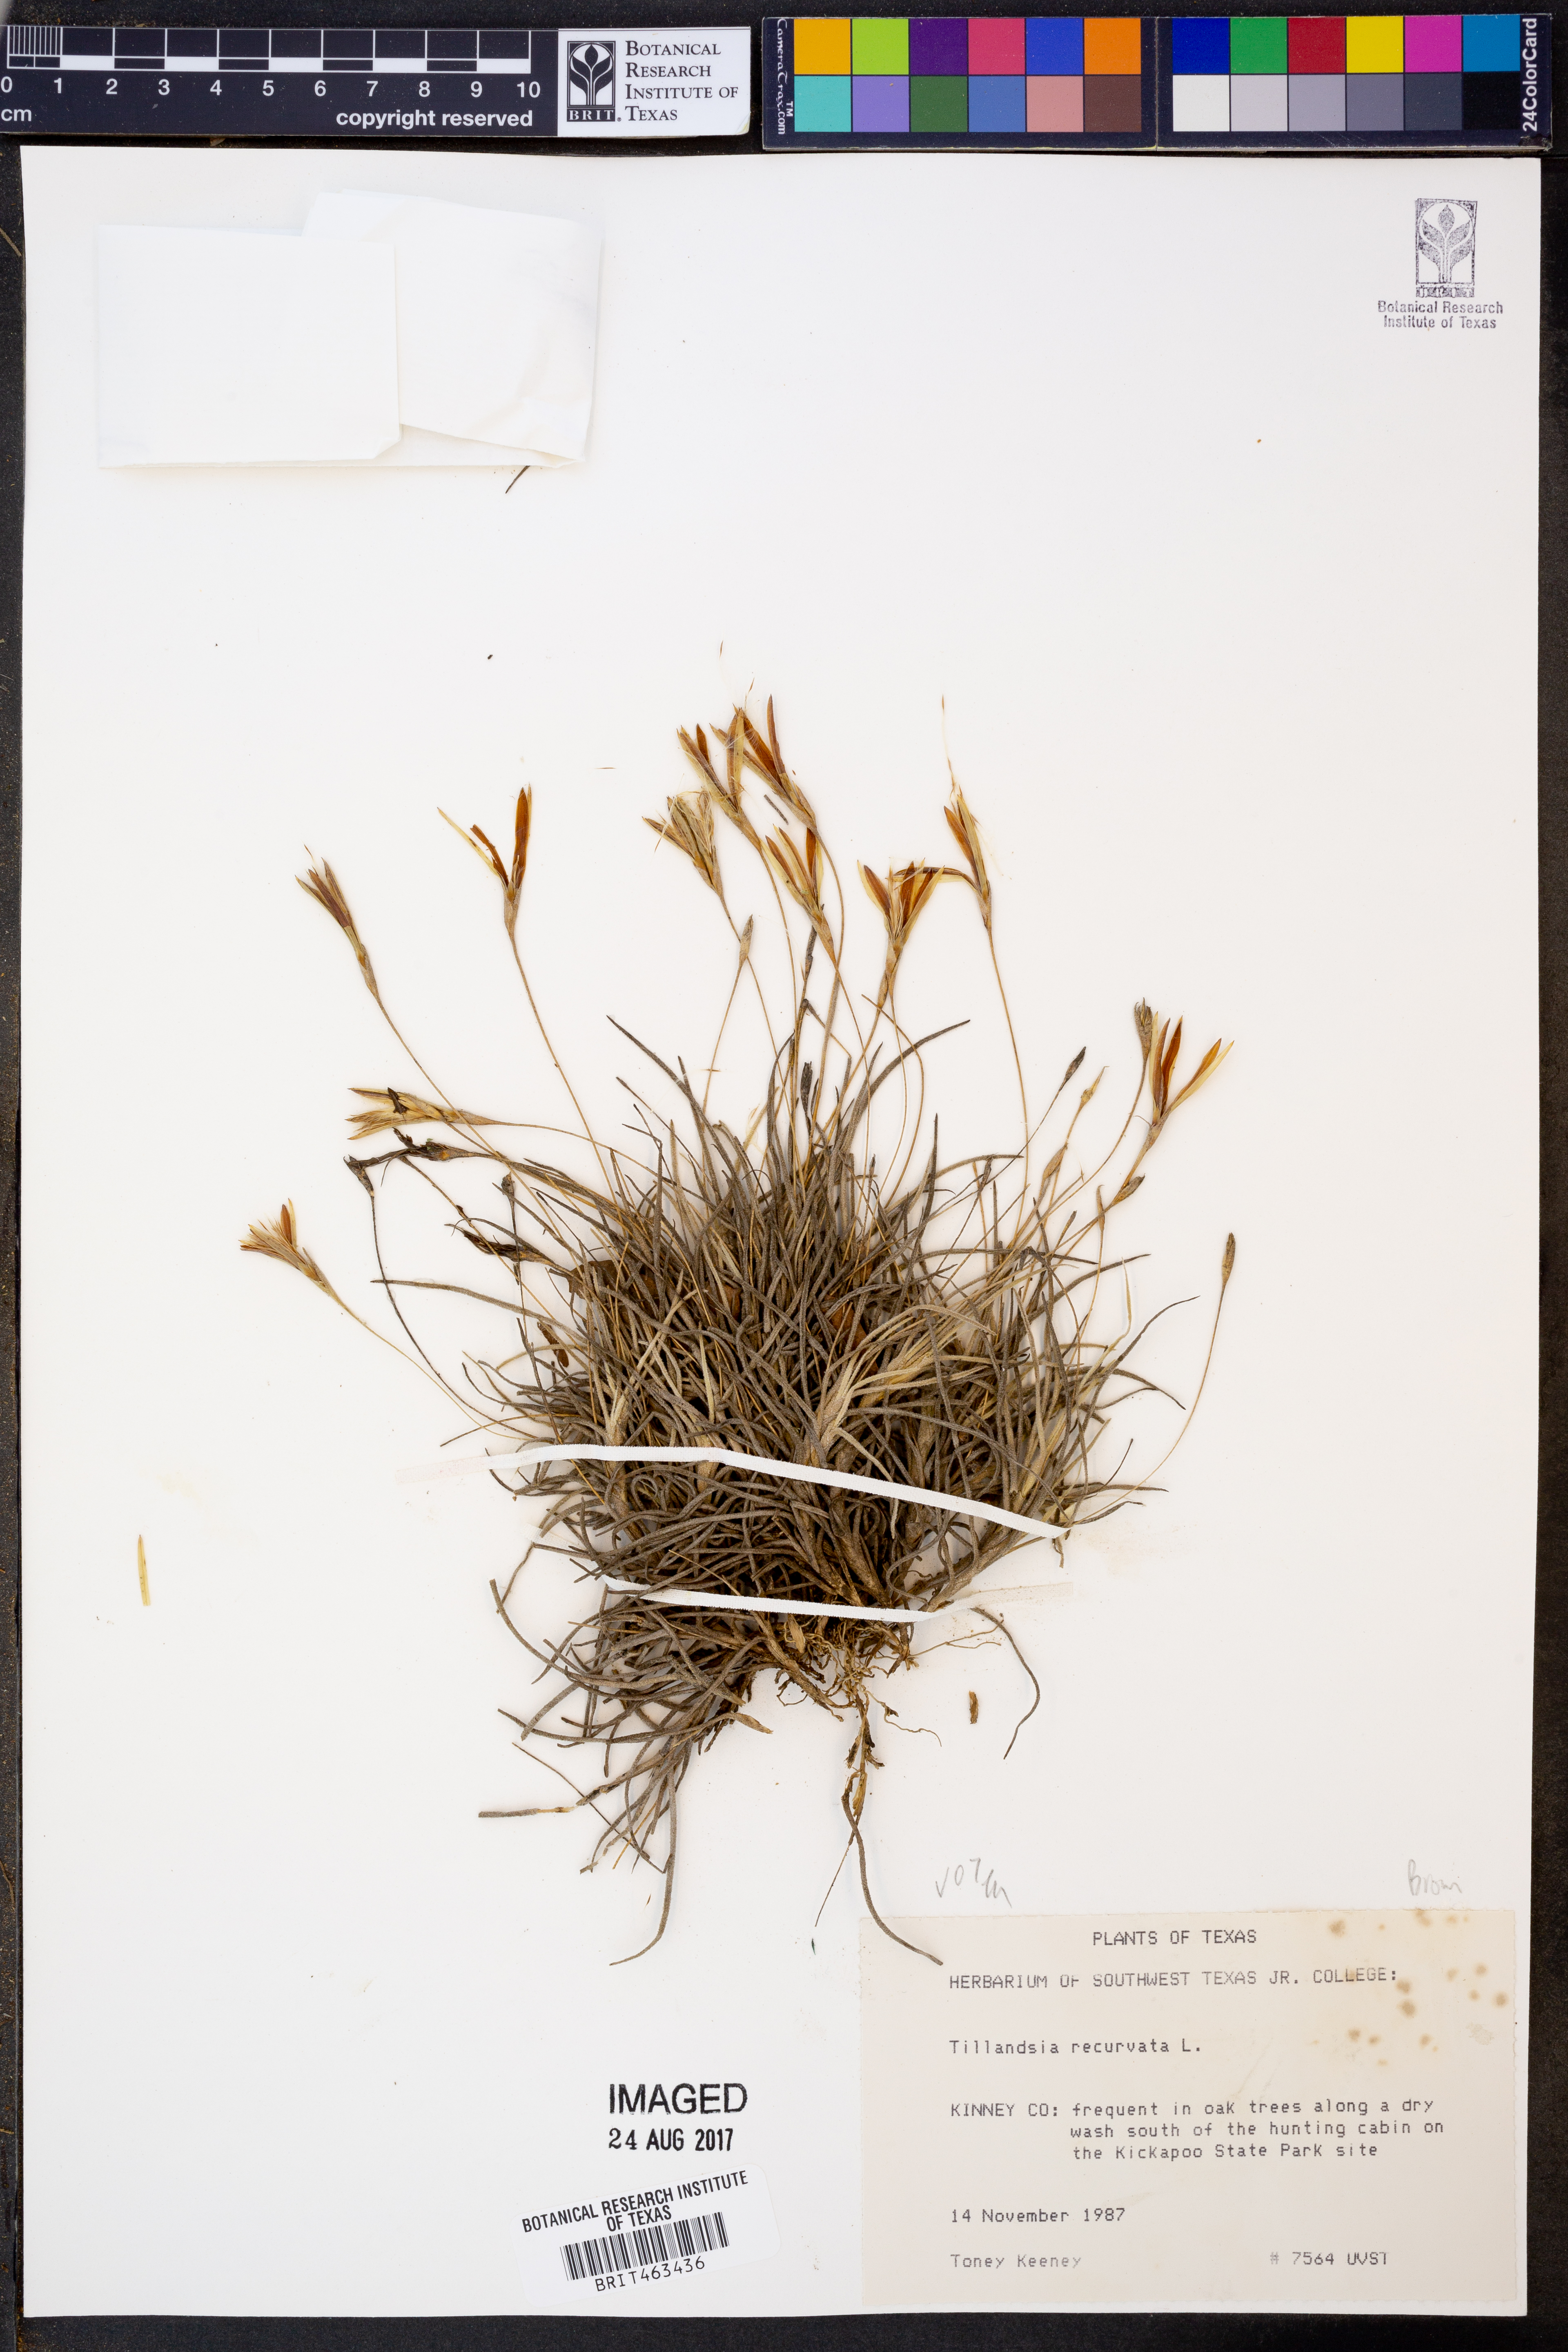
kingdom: Plantae
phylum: Tracheophyta
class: Liliopsida
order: Poales
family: Bromeliaceae
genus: Tillandsia
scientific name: Tillandsia recurvata
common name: Small ballmoss
